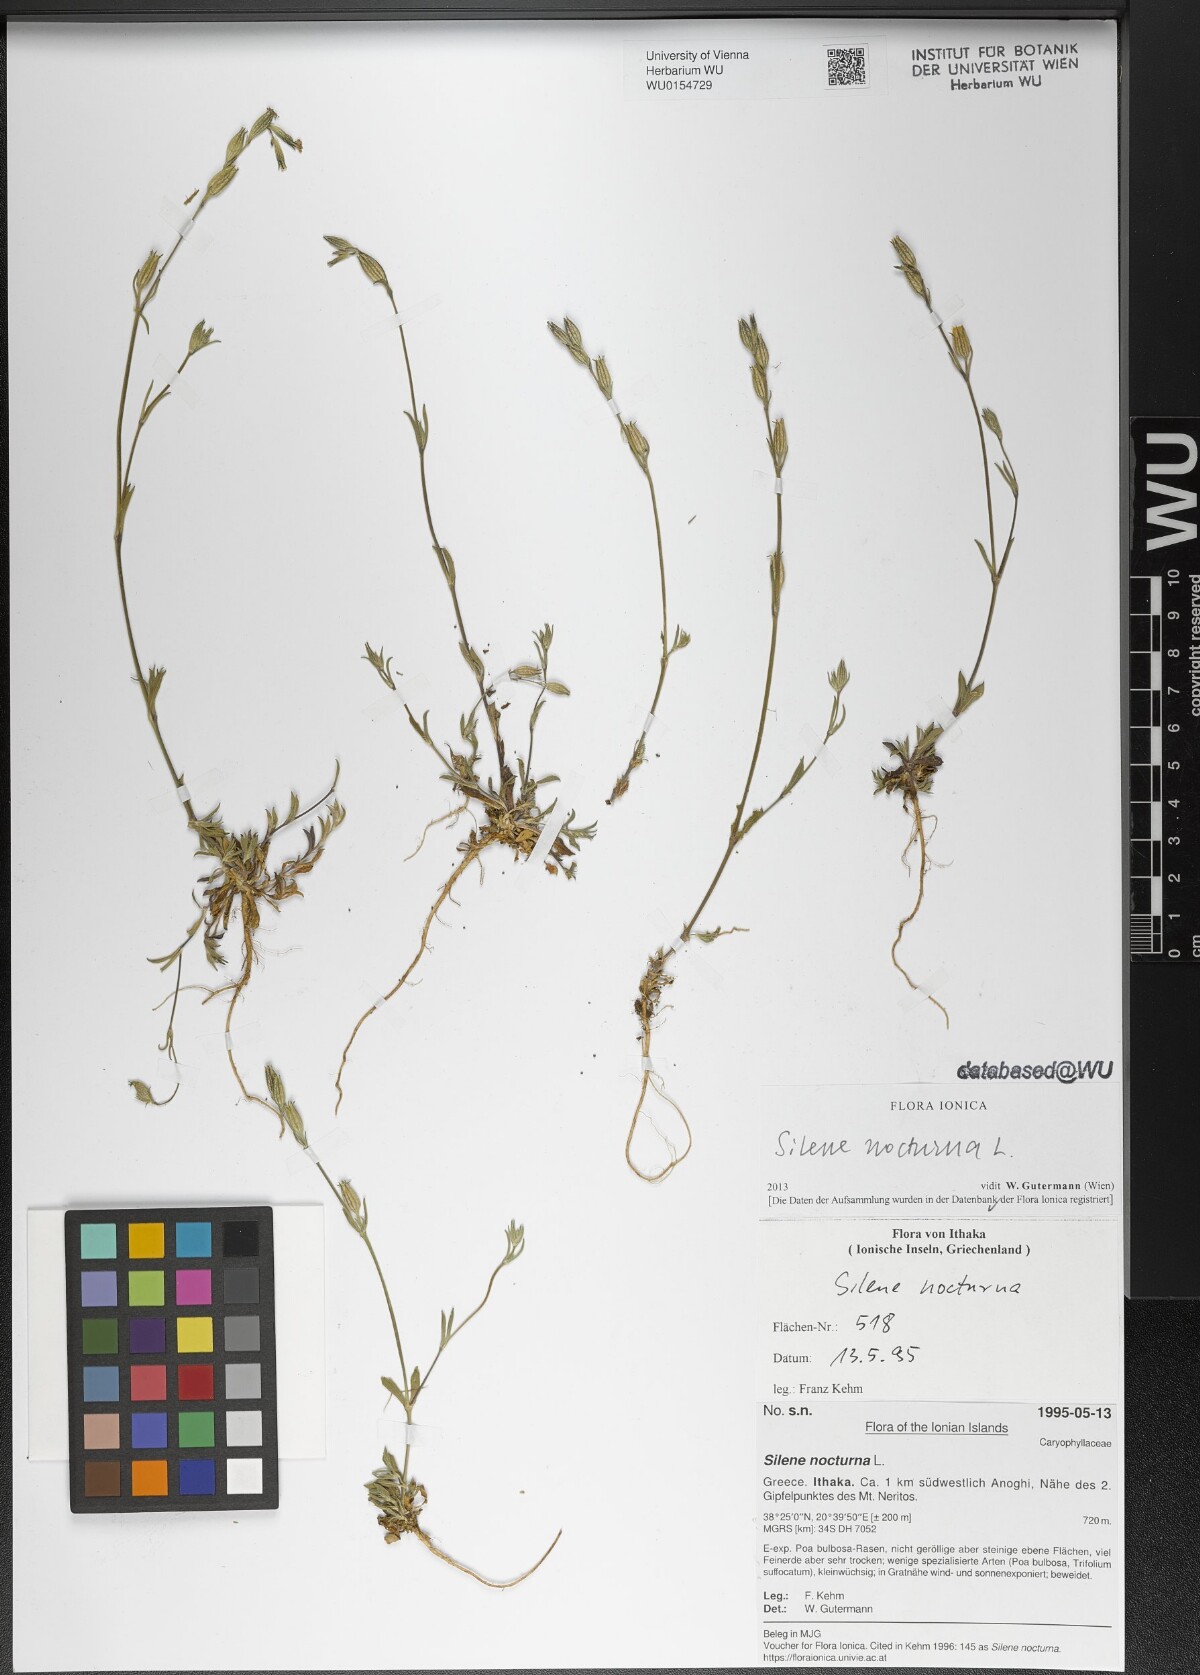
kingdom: Plantae
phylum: Tracheophyta
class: Magnoliopsida
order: Caryophyllales
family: Caryophyllaceae
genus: Silene
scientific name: Silene nocturna
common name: Mediterranean catchfly
